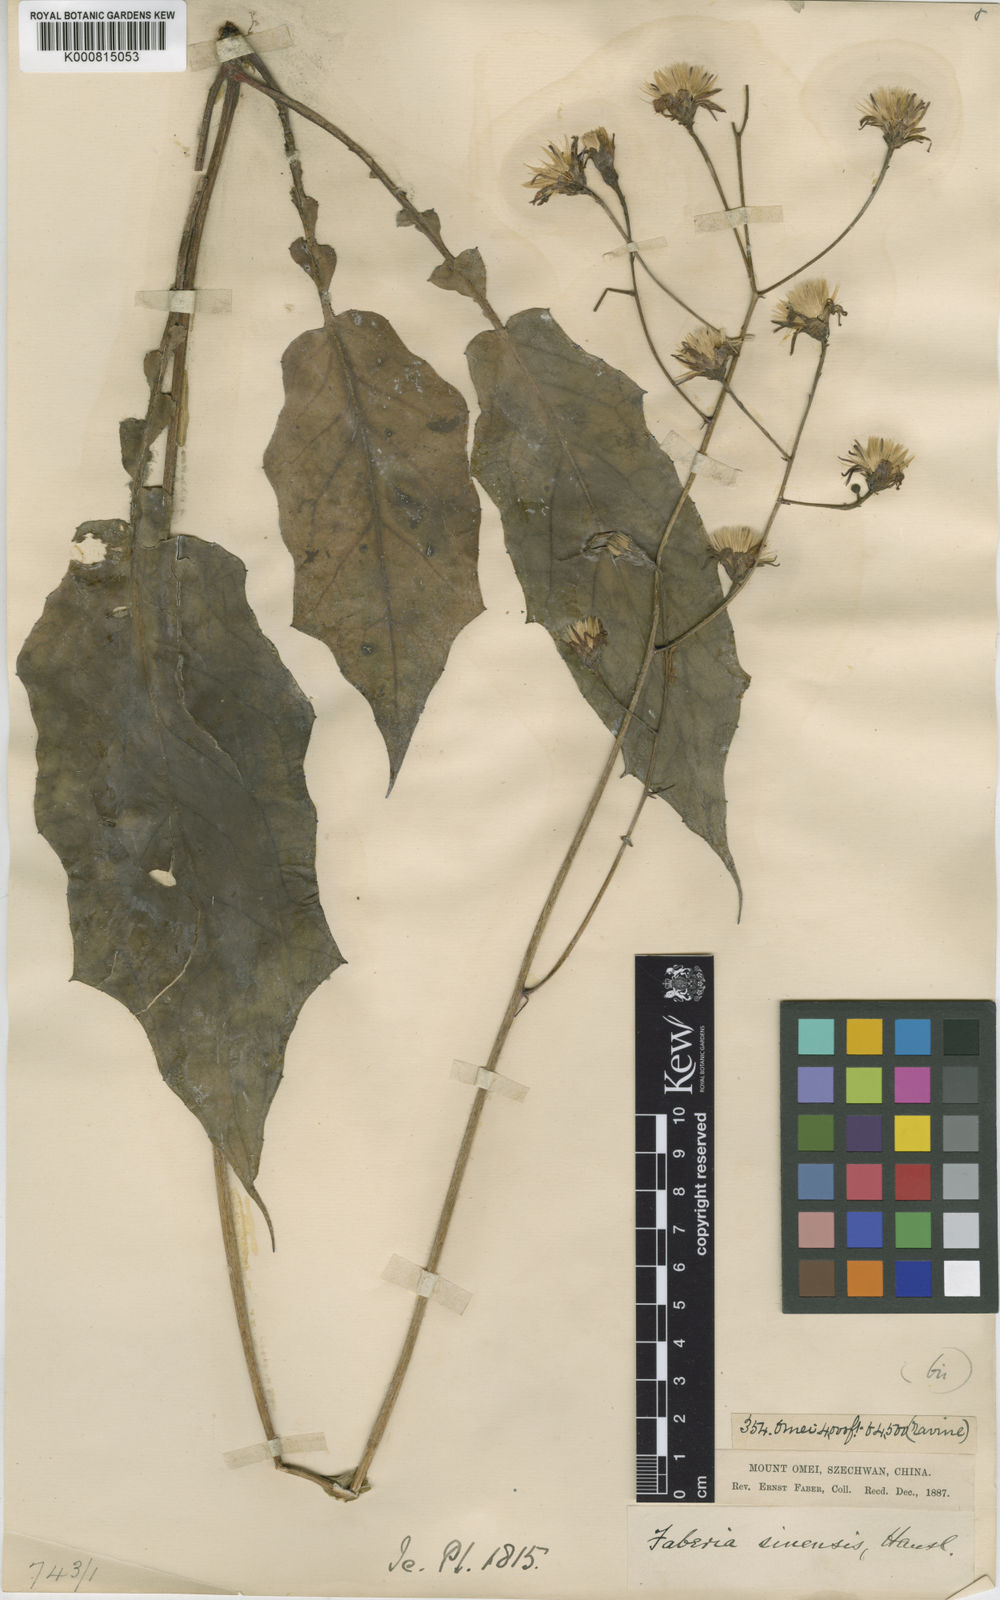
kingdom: Plantae
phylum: Tracheophyta
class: Magnoliopsida
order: Asterales
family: Asteraceae
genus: Prenanthes
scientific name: Prenanthes
